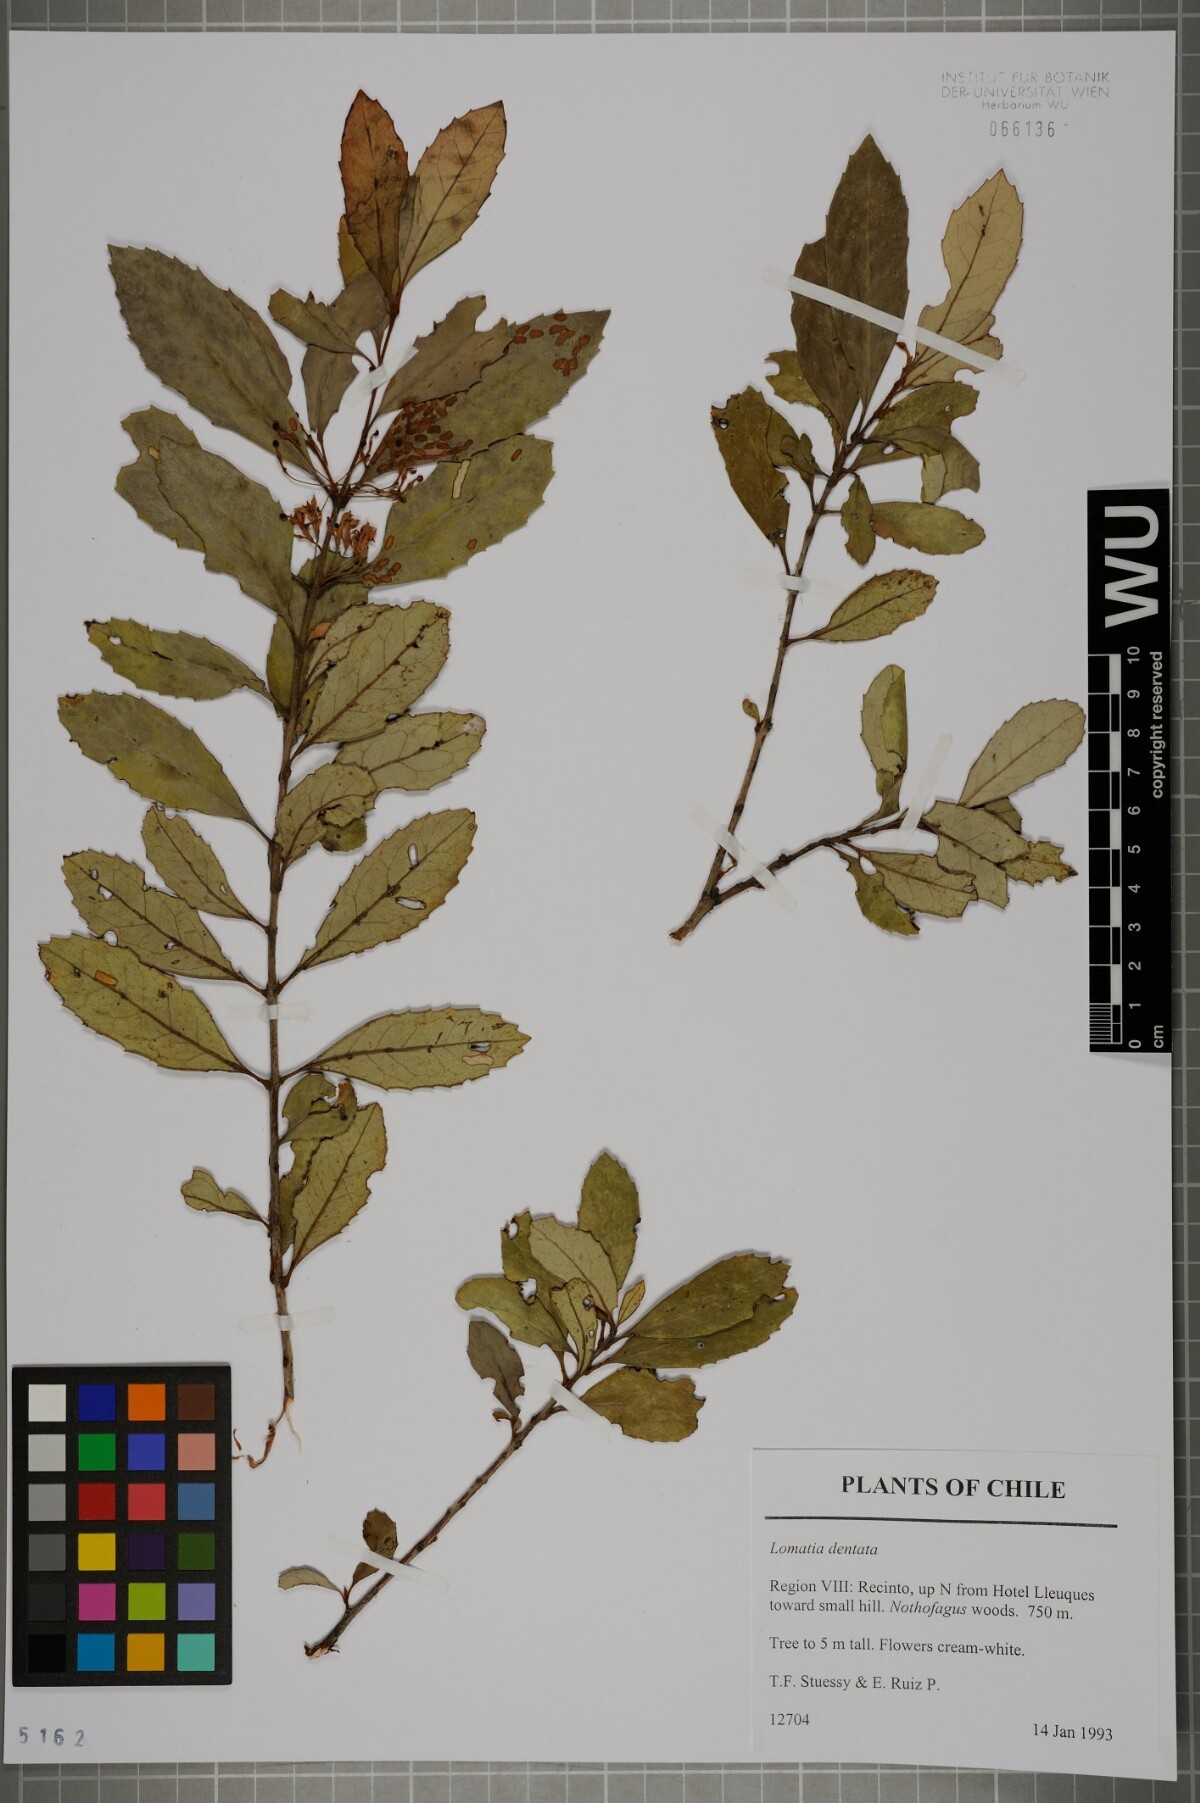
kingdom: Plantae
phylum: Tracheophyta
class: Magnoliopsida
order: Proteales
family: Proteaceae
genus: Lomatia
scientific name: Lomatia dentata
